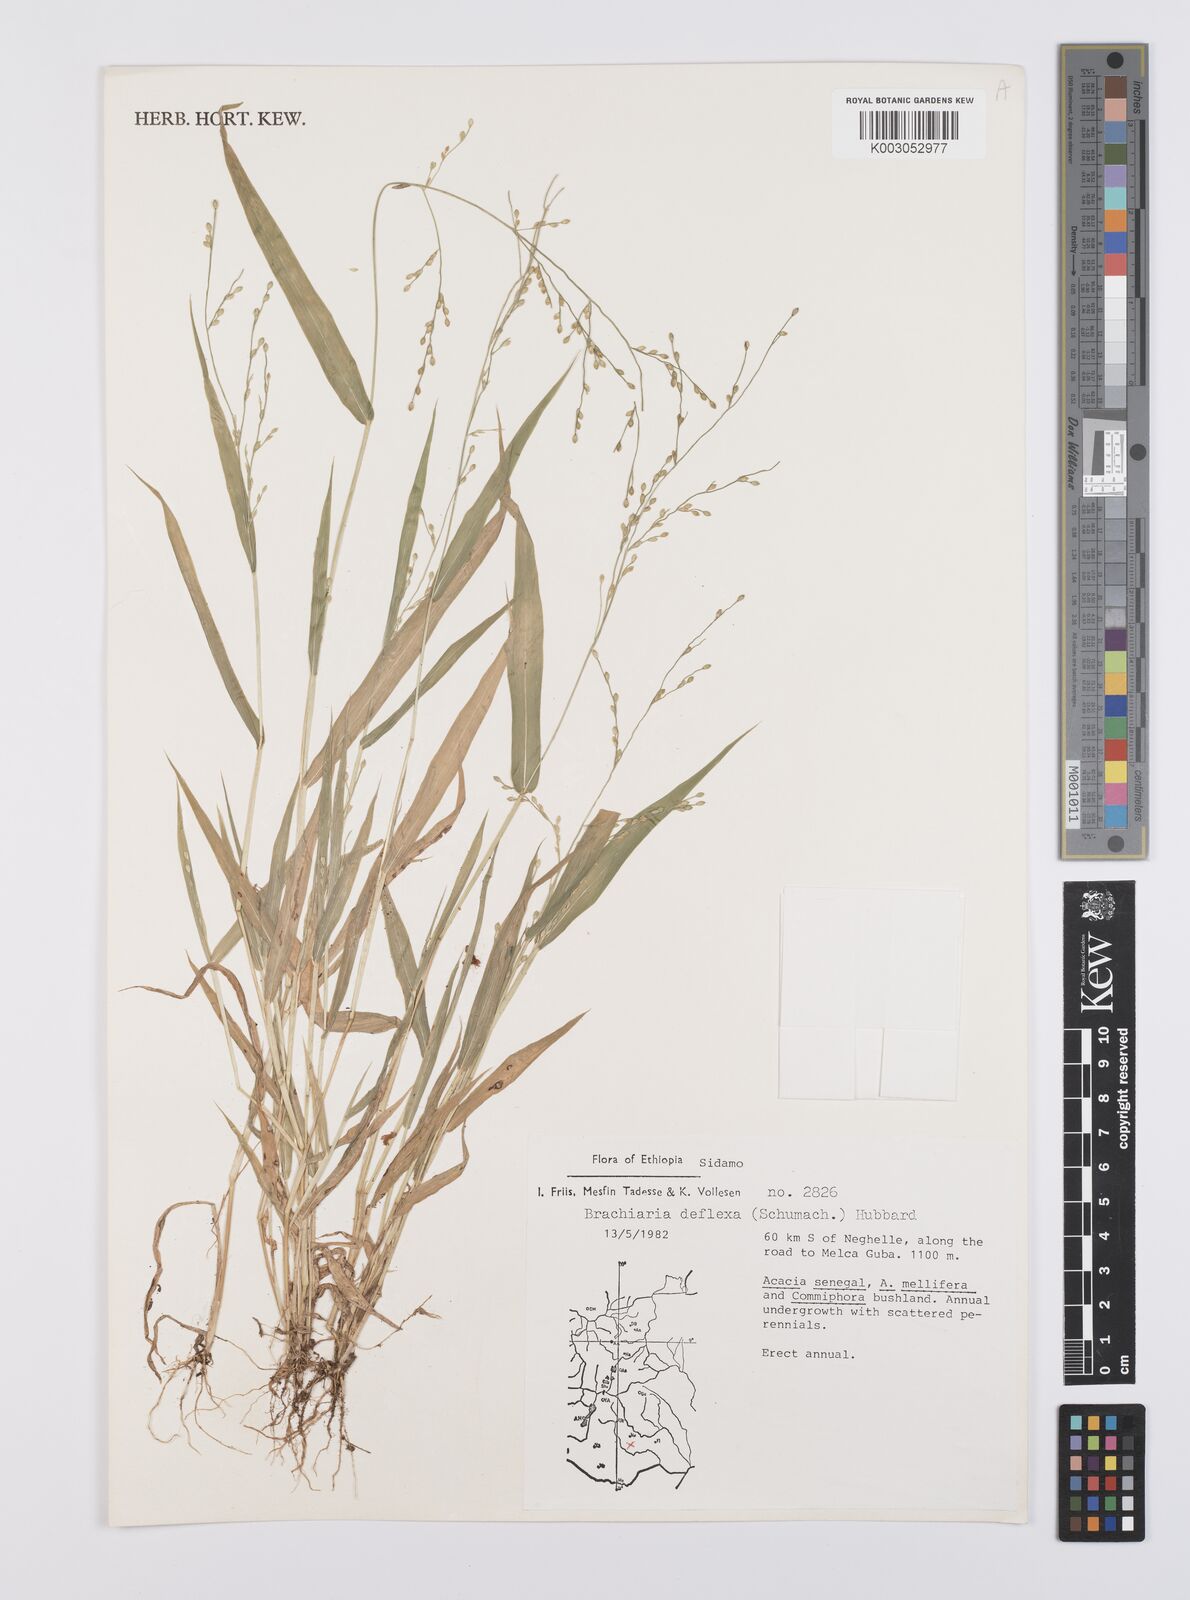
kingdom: Plantae
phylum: Tracheophyta
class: Liliopsida
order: Poales
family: Poaceae
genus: Urochloa
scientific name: Urochloa deflexa
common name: Guinea millet
